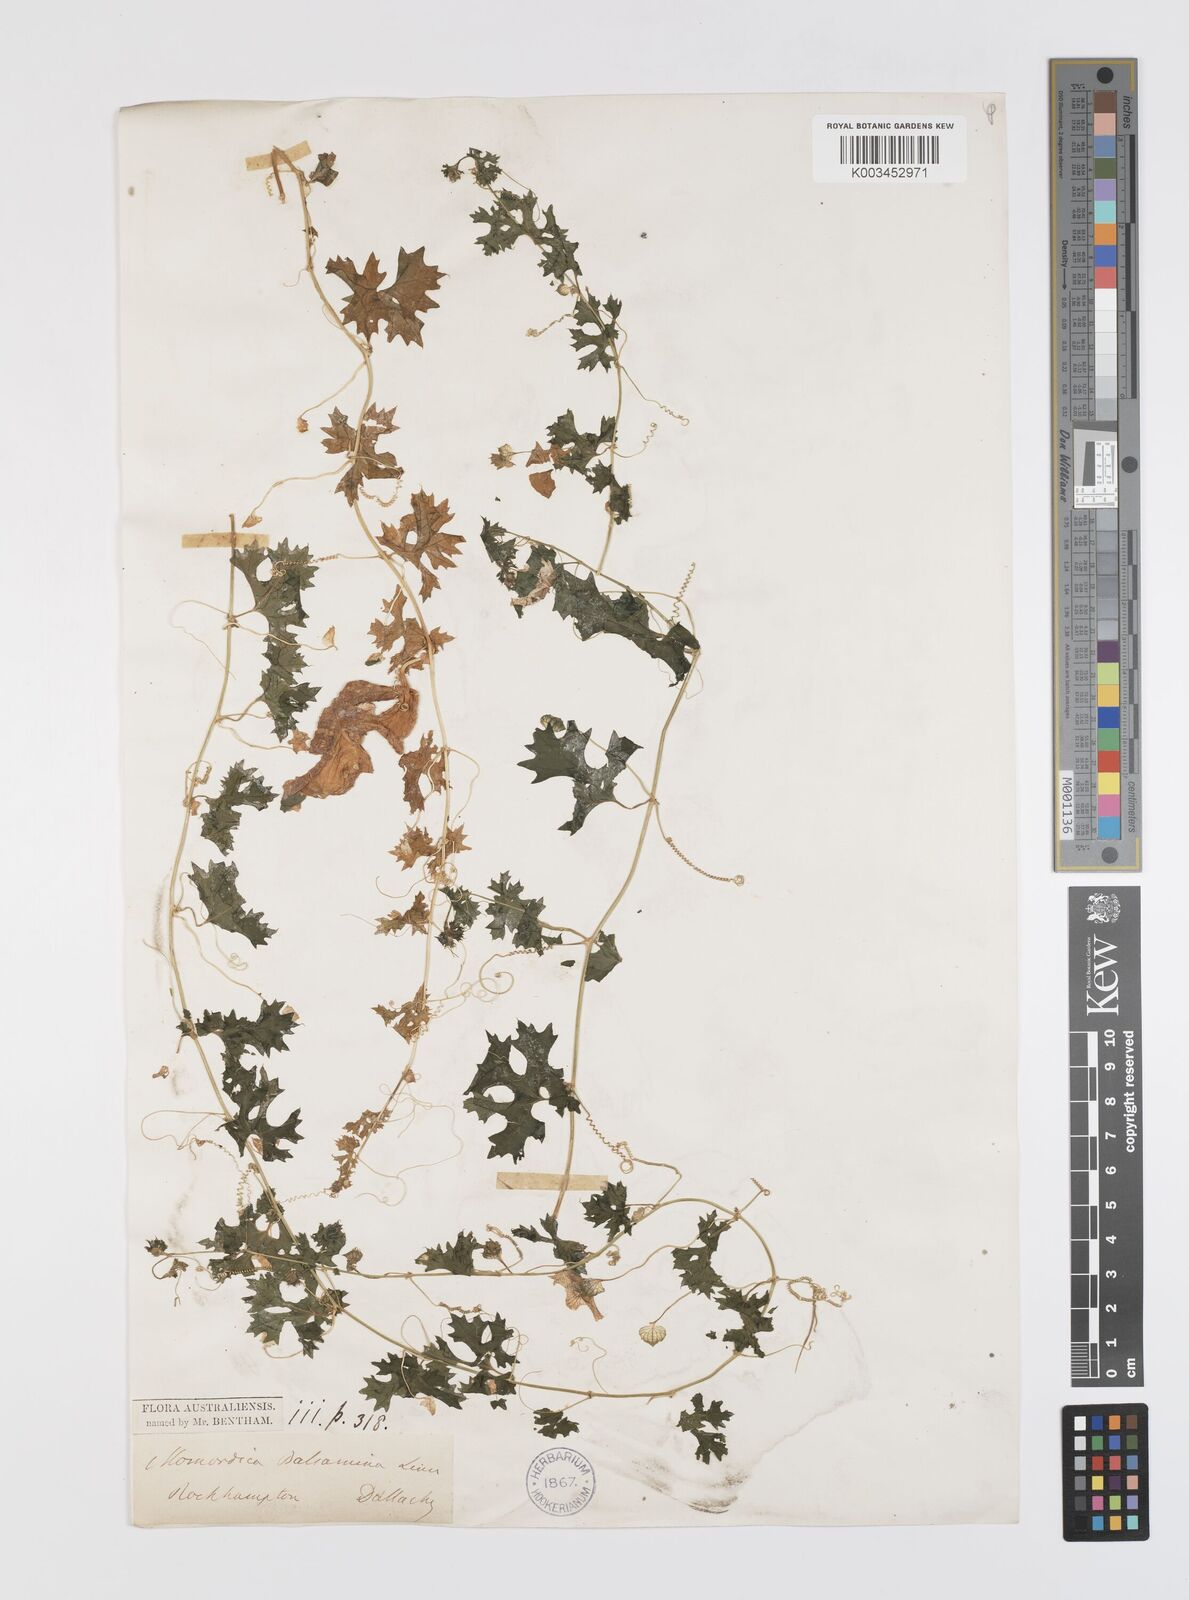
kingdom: Plantae
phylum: Tracheophyta
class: Magnoliopsida
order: Cucurbitales
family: Cucurbitaceae
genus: Momordica
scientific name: Momordica balsamina
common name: Southern balsampear
